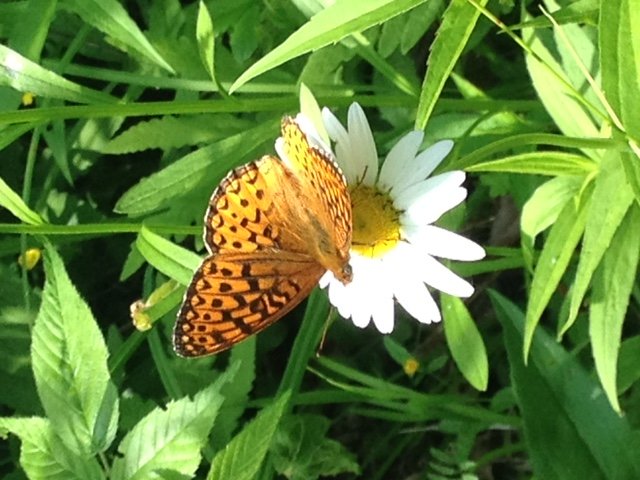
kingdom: Animalia
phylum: Arthropoda
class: Insecta
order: Lepidoptera
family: Nymphalidae
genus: Speyeria
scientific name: Speyeria atlantis
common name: Atlantis Fritillary
